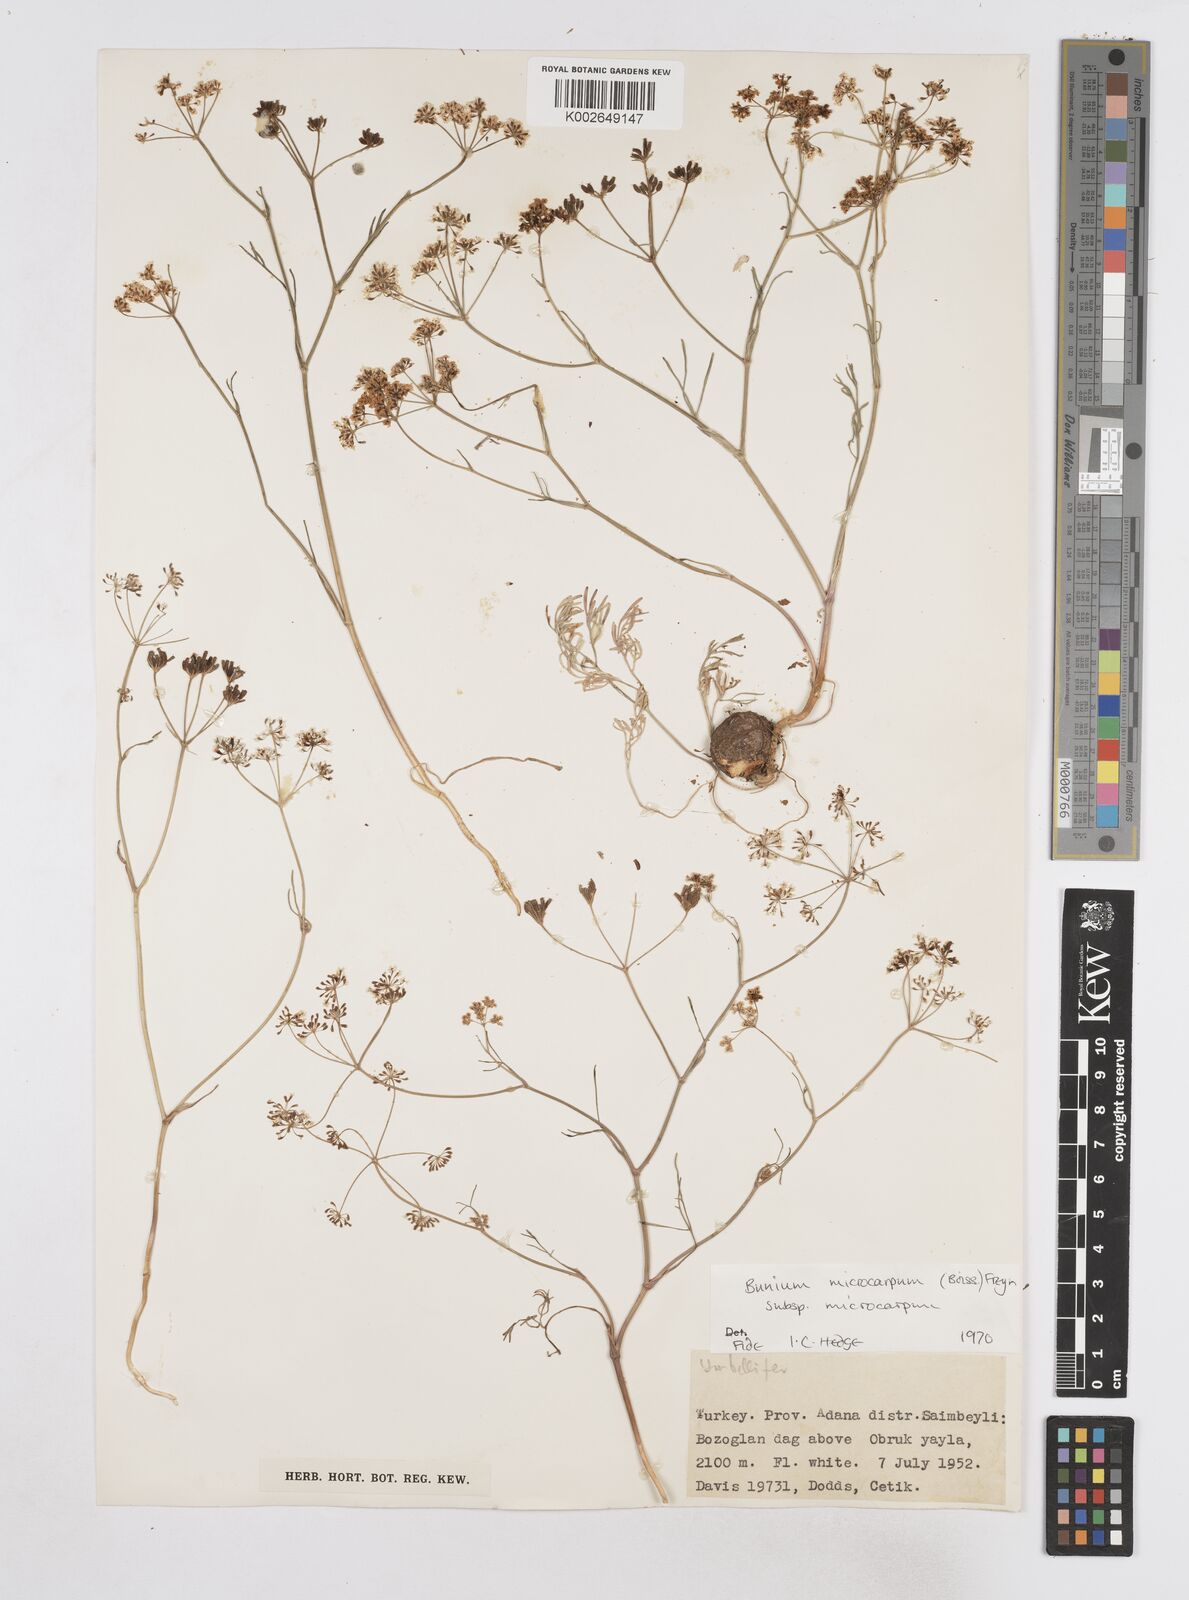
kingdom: Plantae
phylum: Tracheophyta
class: Magnoliopsida
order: Apiales
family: Apiaceae
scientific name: Apiaceae
